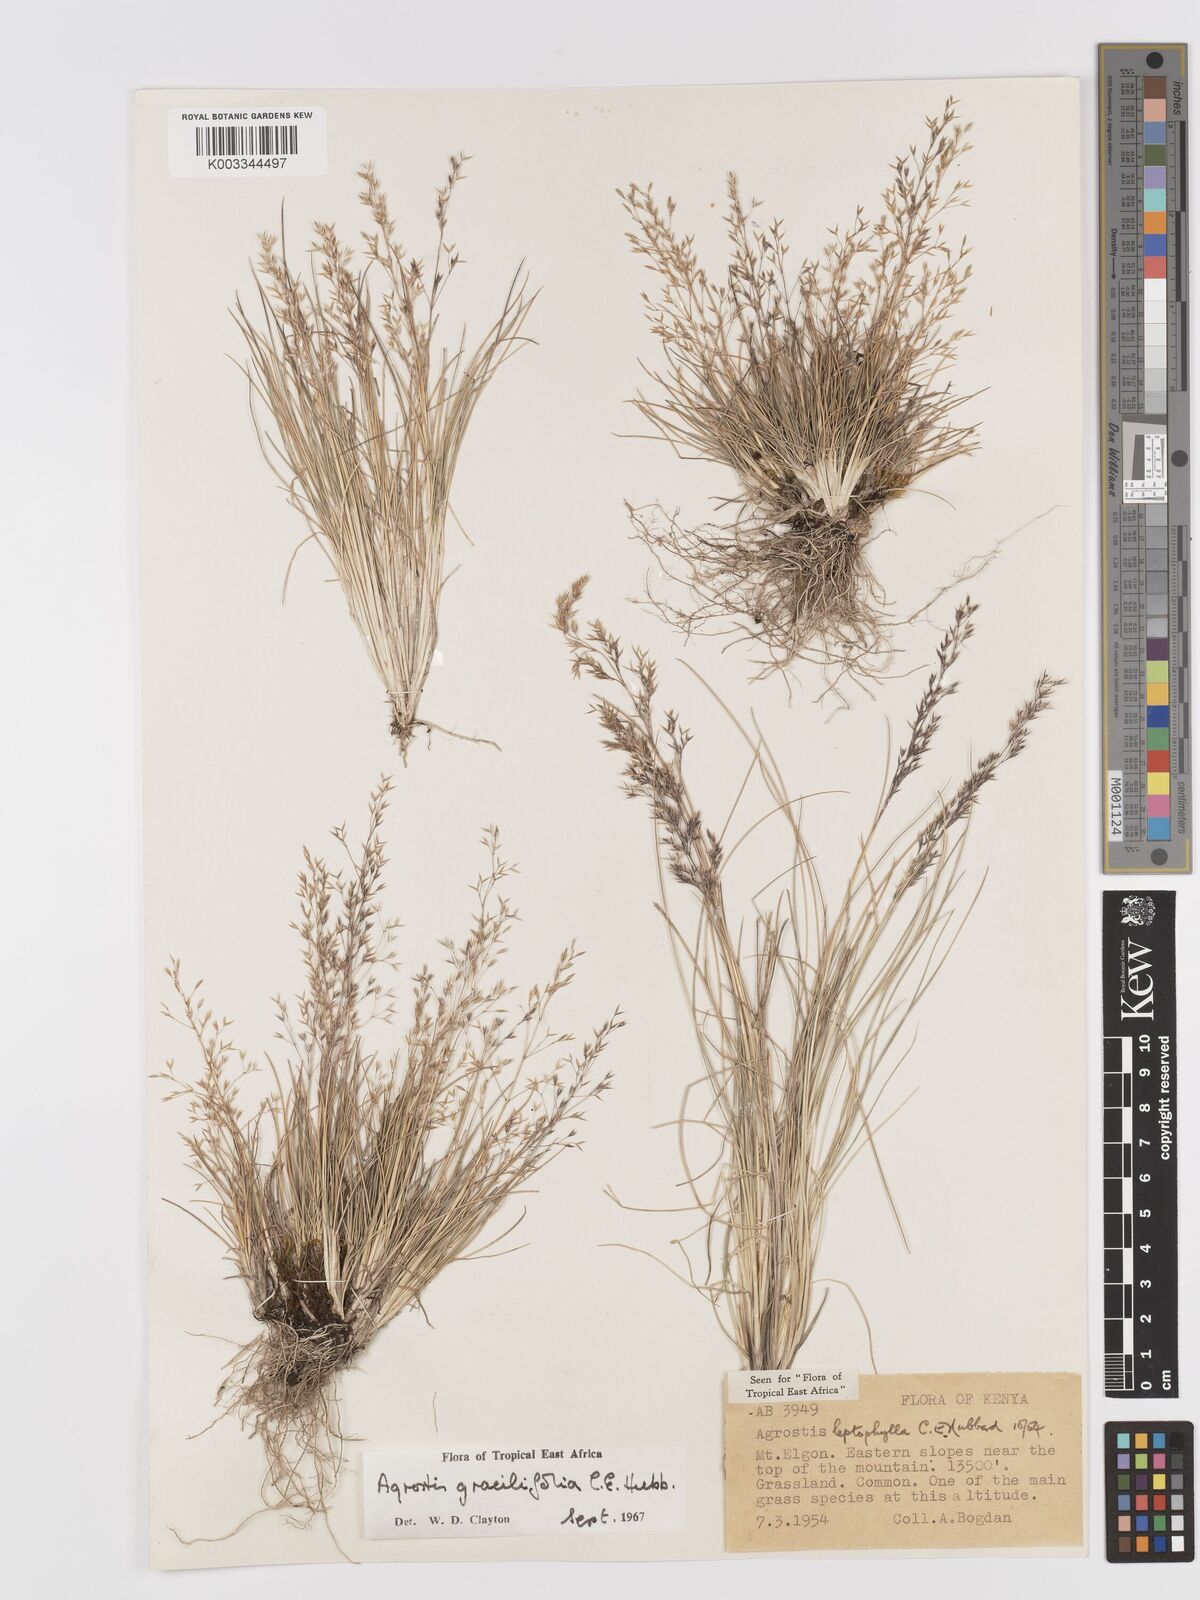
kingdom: Plantae
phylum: Tracheophyta
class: Liliopsida
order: Poales
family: Poaceae
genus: Agrostis
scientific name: Agrostis gracilifolia
